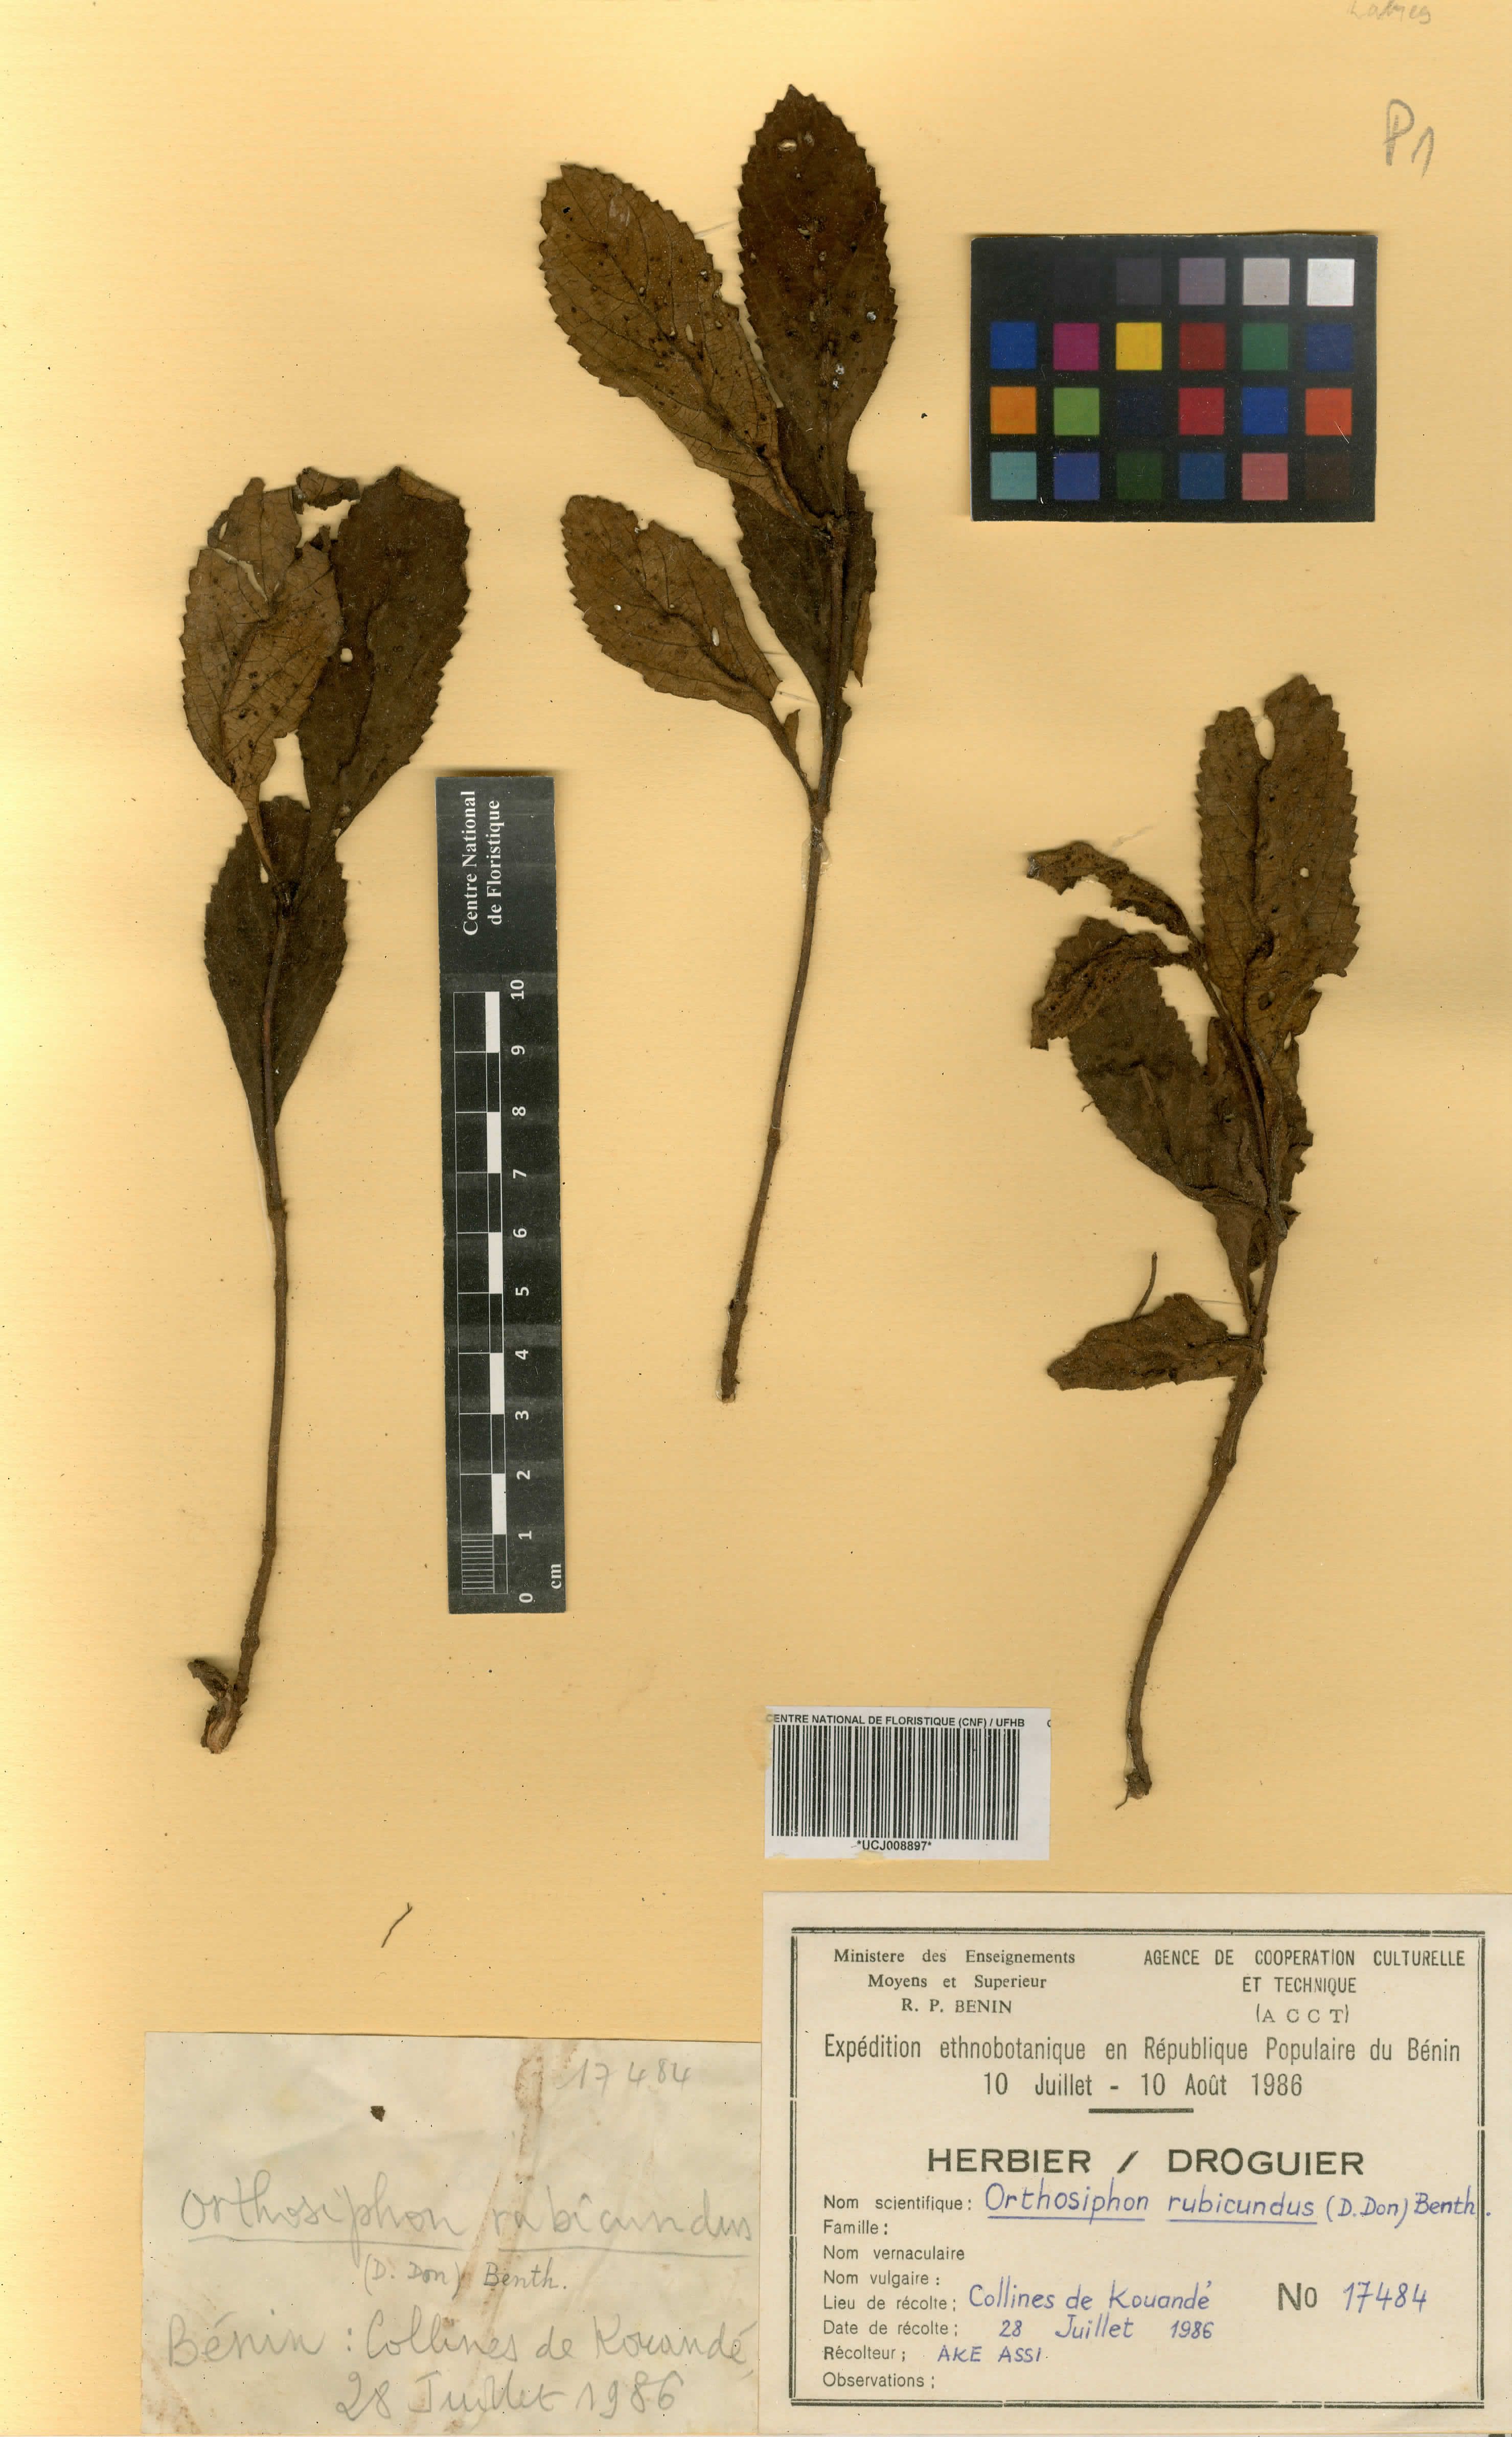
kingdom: Plantae
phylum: Tracheophyta
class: Magnoliopsida
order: Lamiales
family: Lamiaceae
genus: Orthosiphon
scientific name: Orthosiphon rubicundus
